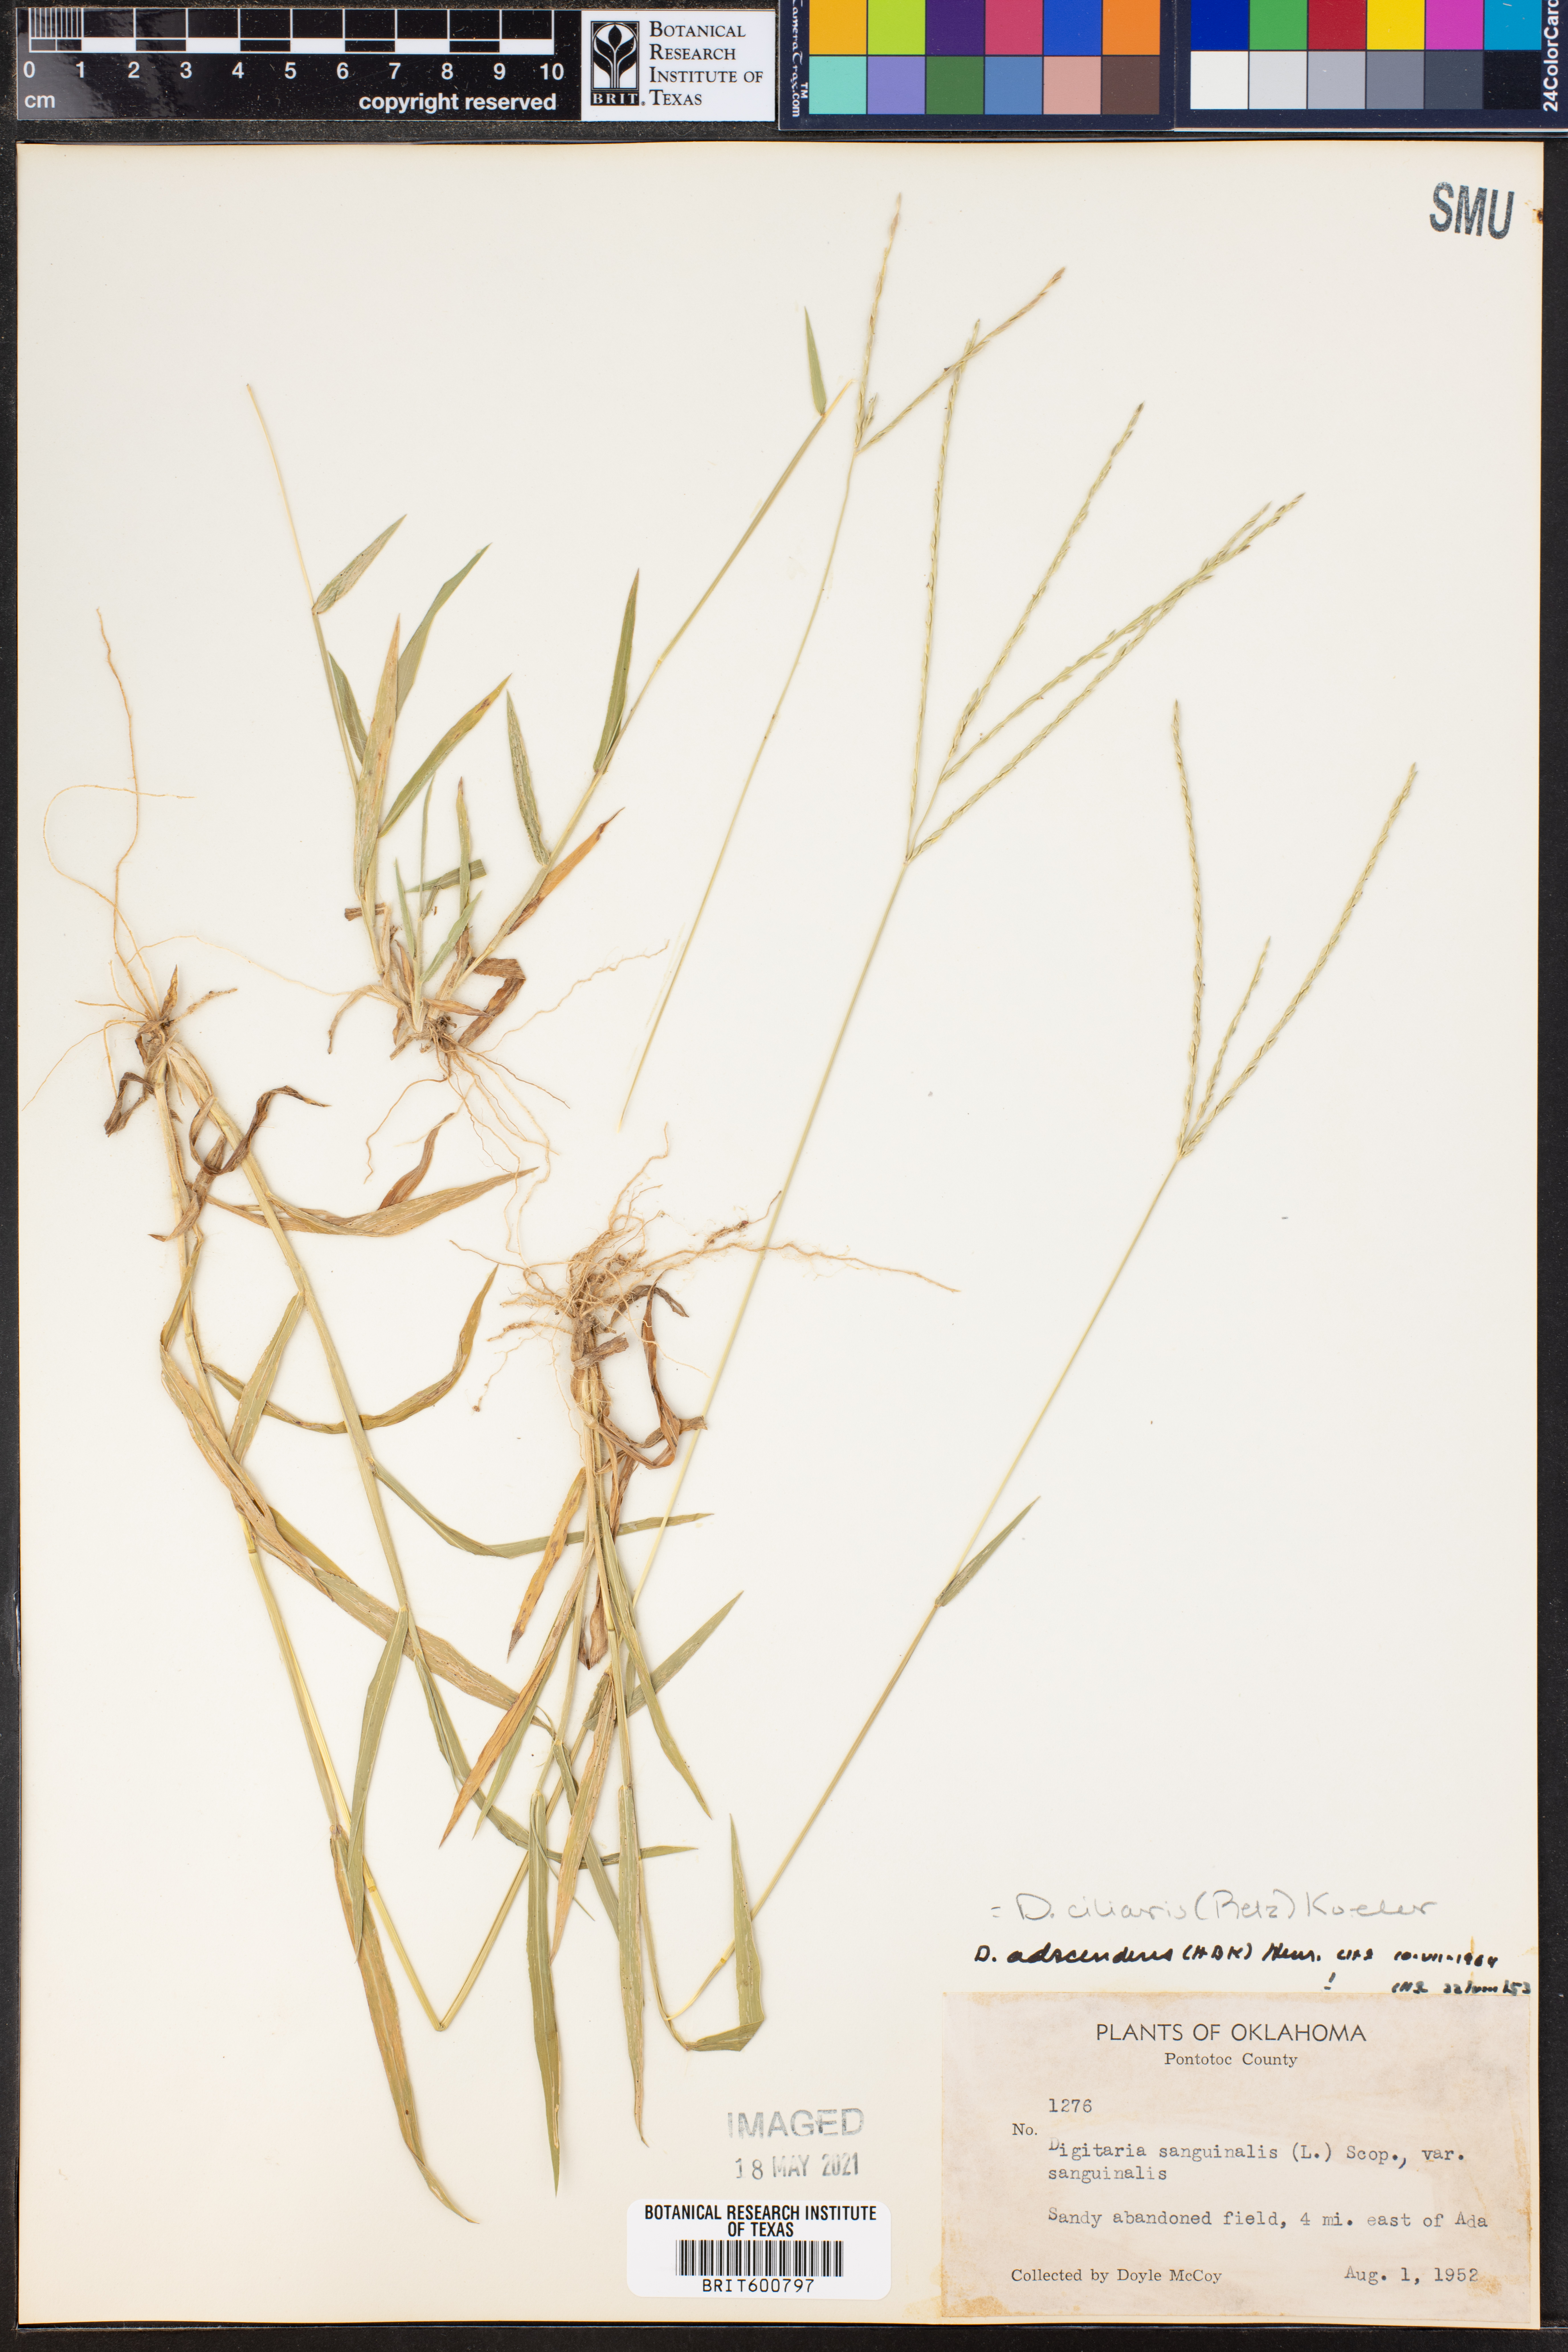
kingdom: Plantae
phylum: Tracheophyta
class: Liliopsida
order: Poales
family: Poaceae
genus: Digitaria
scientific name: Digitaria ciliaris
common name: Tropical finger-grass
